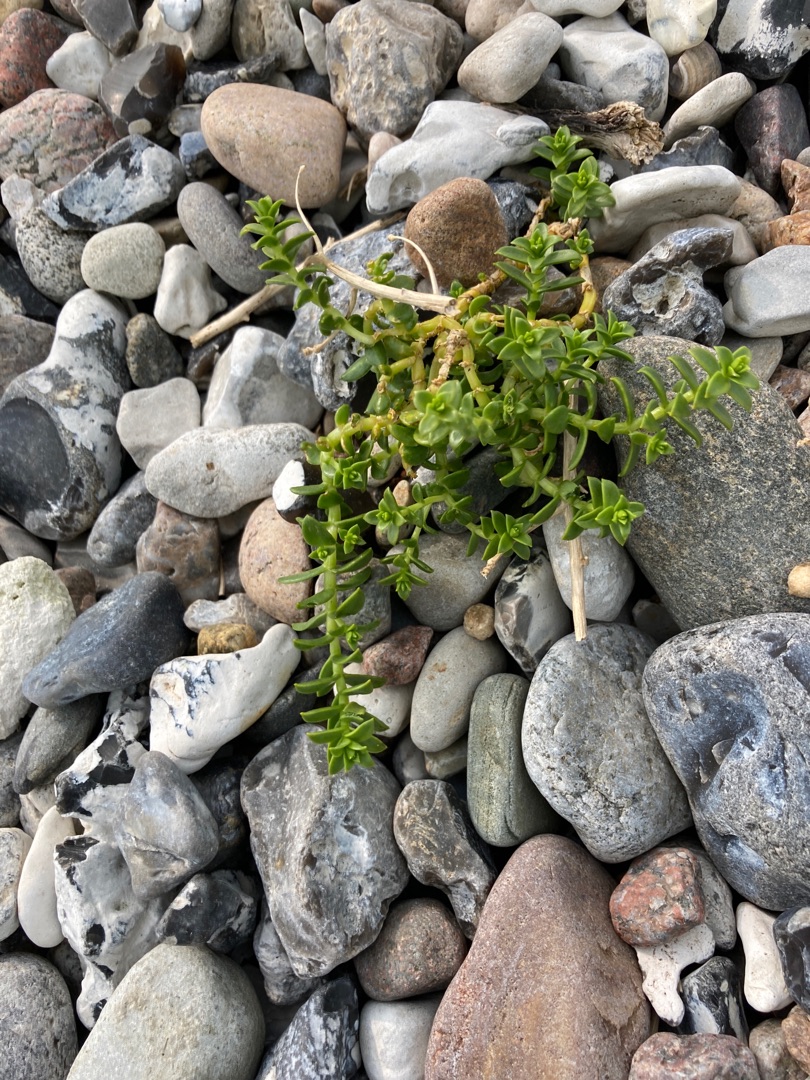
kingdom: Plantae
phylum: Tracheophyta
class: Magnoliopsida
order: Caryophyllales
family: Caryophyllaceae
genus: Honckenya
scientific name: Honckenya peploides
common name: Strandarve
